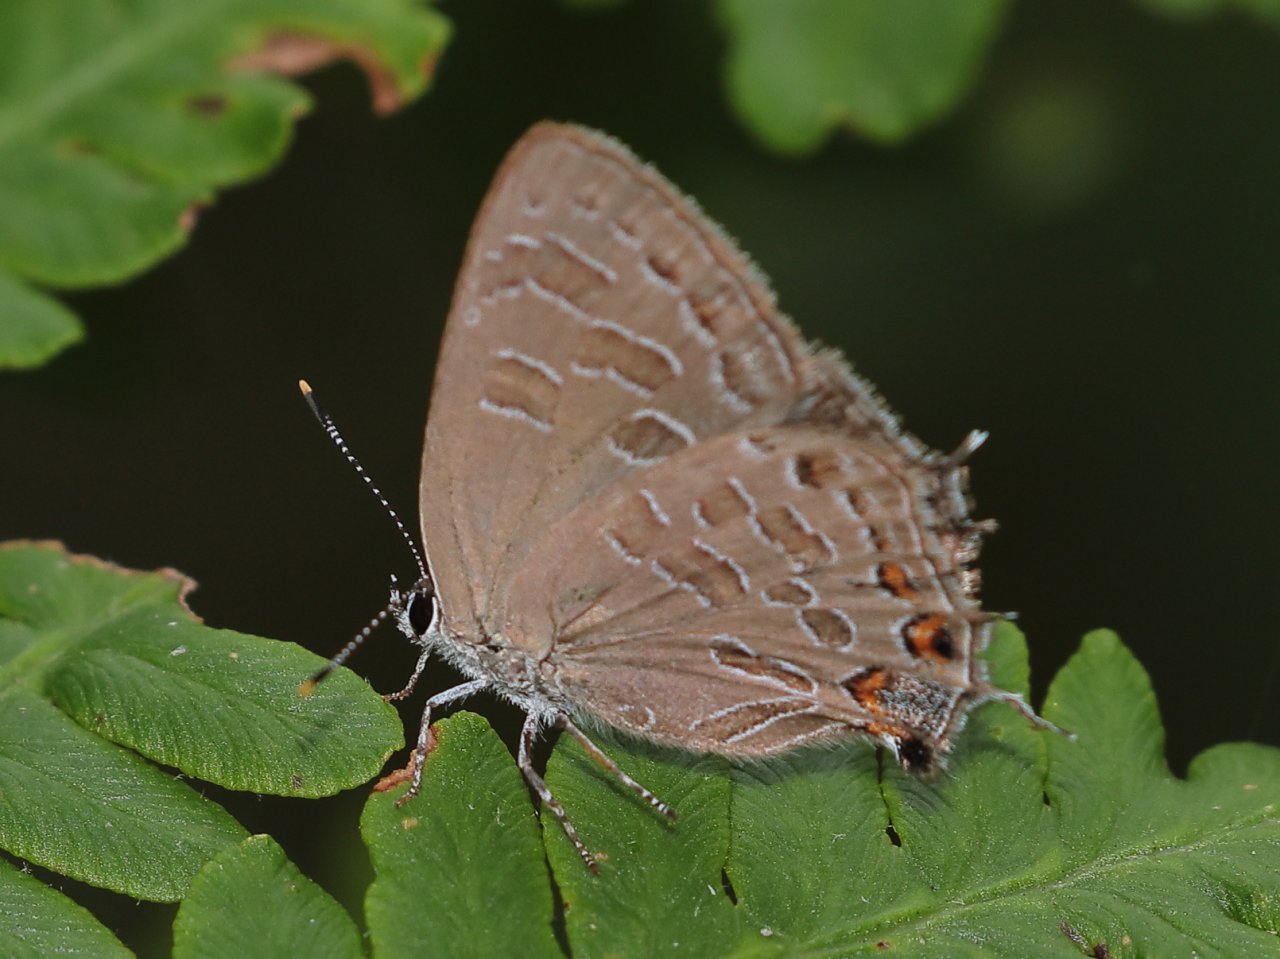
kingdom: Animalia
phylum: Arthropoda
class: Insecta
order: Lepidoptera
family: Lycaenidae
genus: Satyrium
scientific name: Satyrium liparops
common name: Striped Hairstreak
